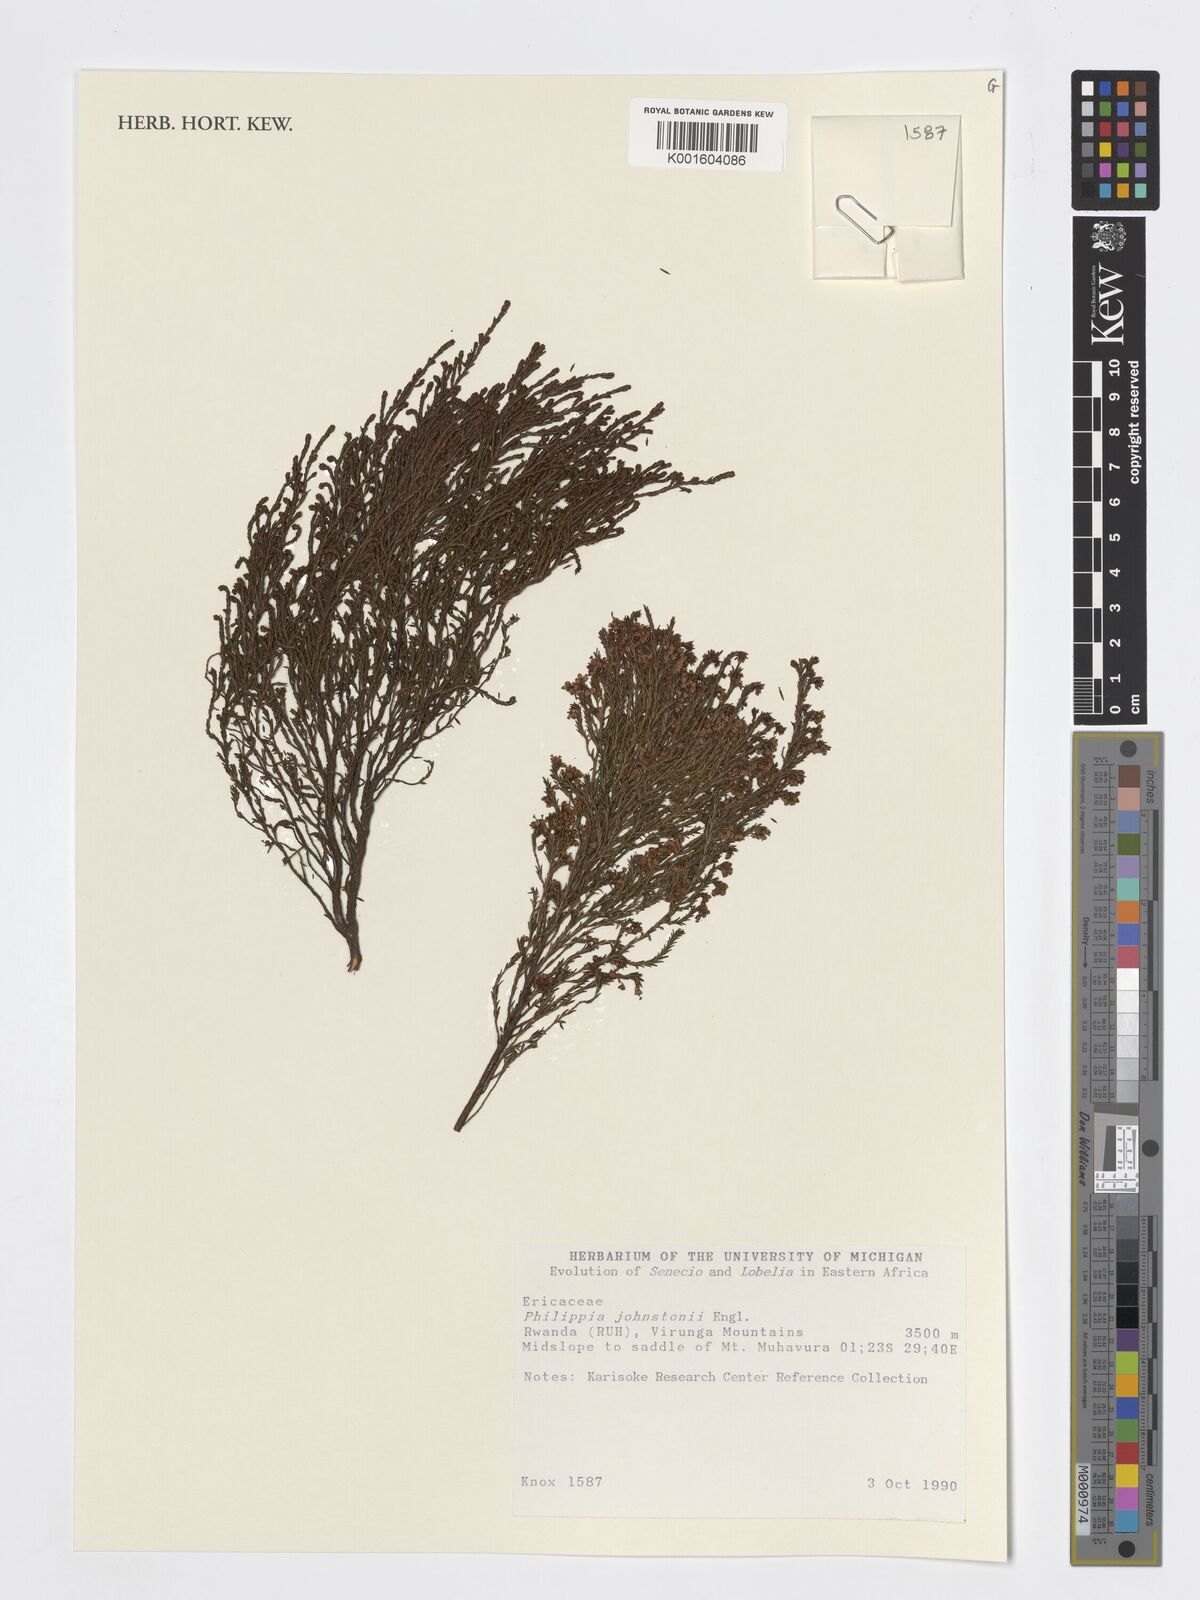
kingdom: Plantae
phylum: Tracheophyta
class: Magnoliopsida
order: Ericales
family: Ericaceae
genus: Erica
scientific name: Erica mannii
